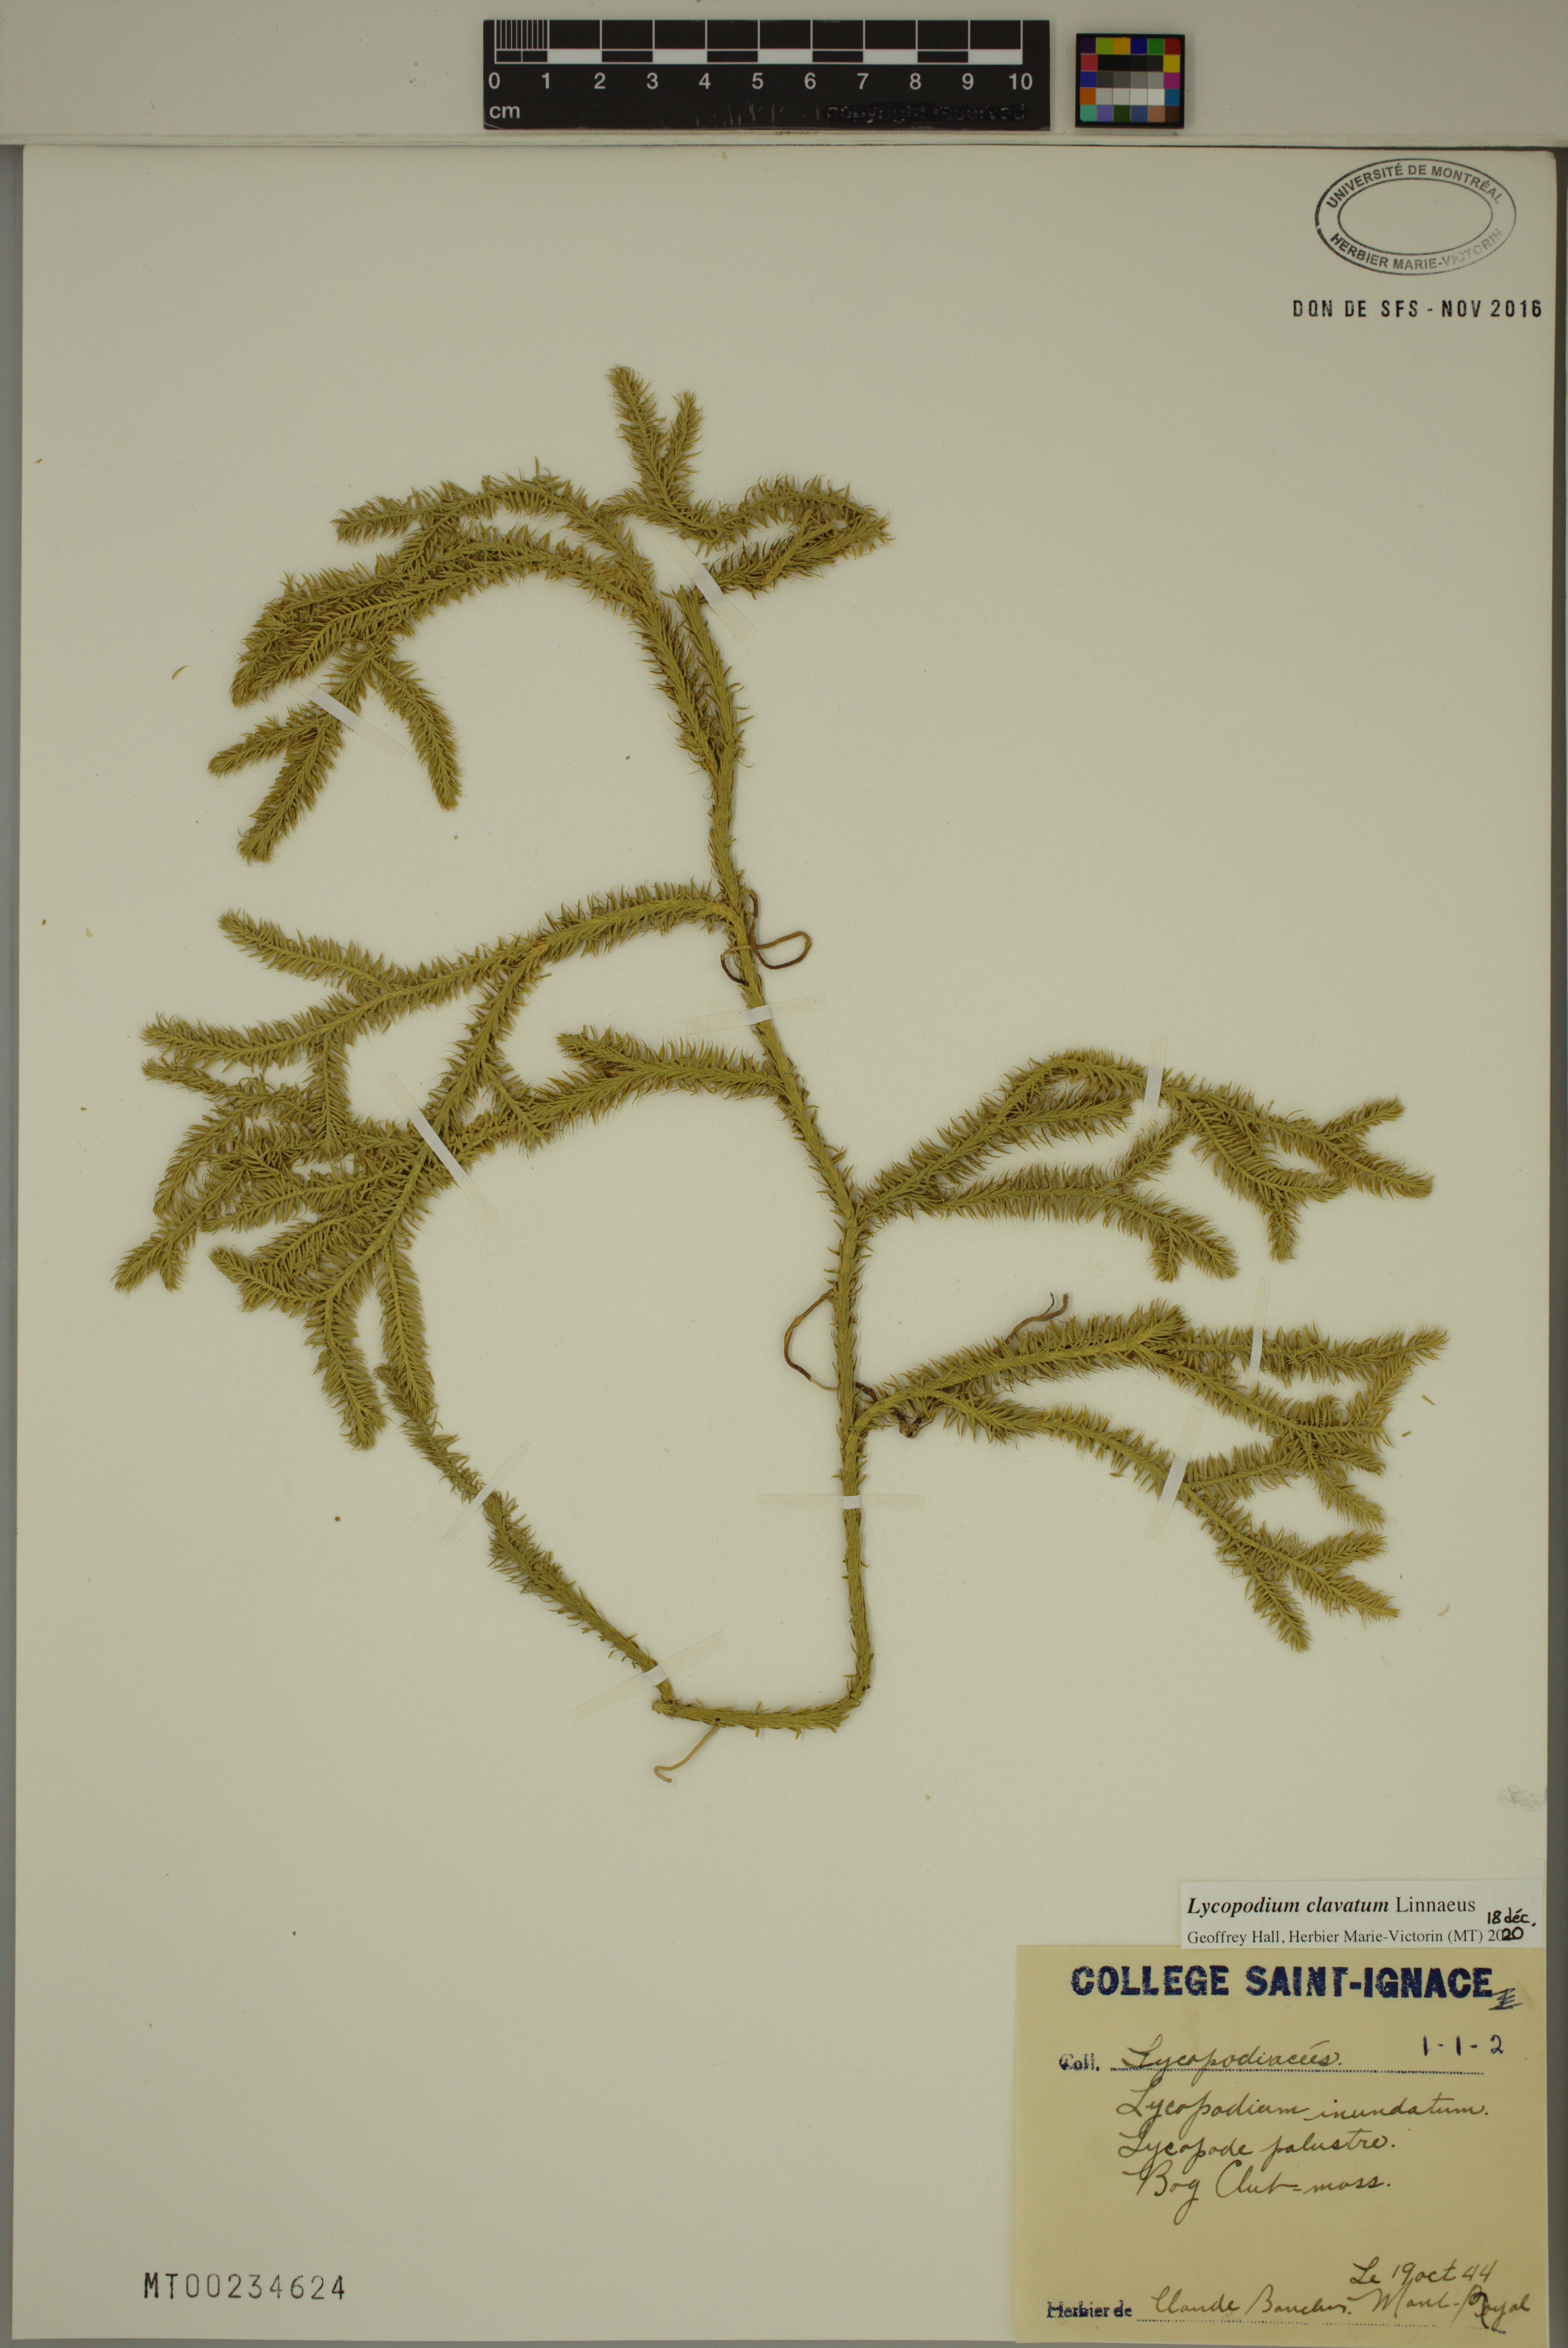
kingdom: Plantae
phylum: Tracheophyta
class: Lycopodiopsida
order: Lycopodiales
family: Lycopodiaceae
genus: Lycopodium
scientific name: Lycopodium clavatum
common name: Stag's-horn clubmoss
